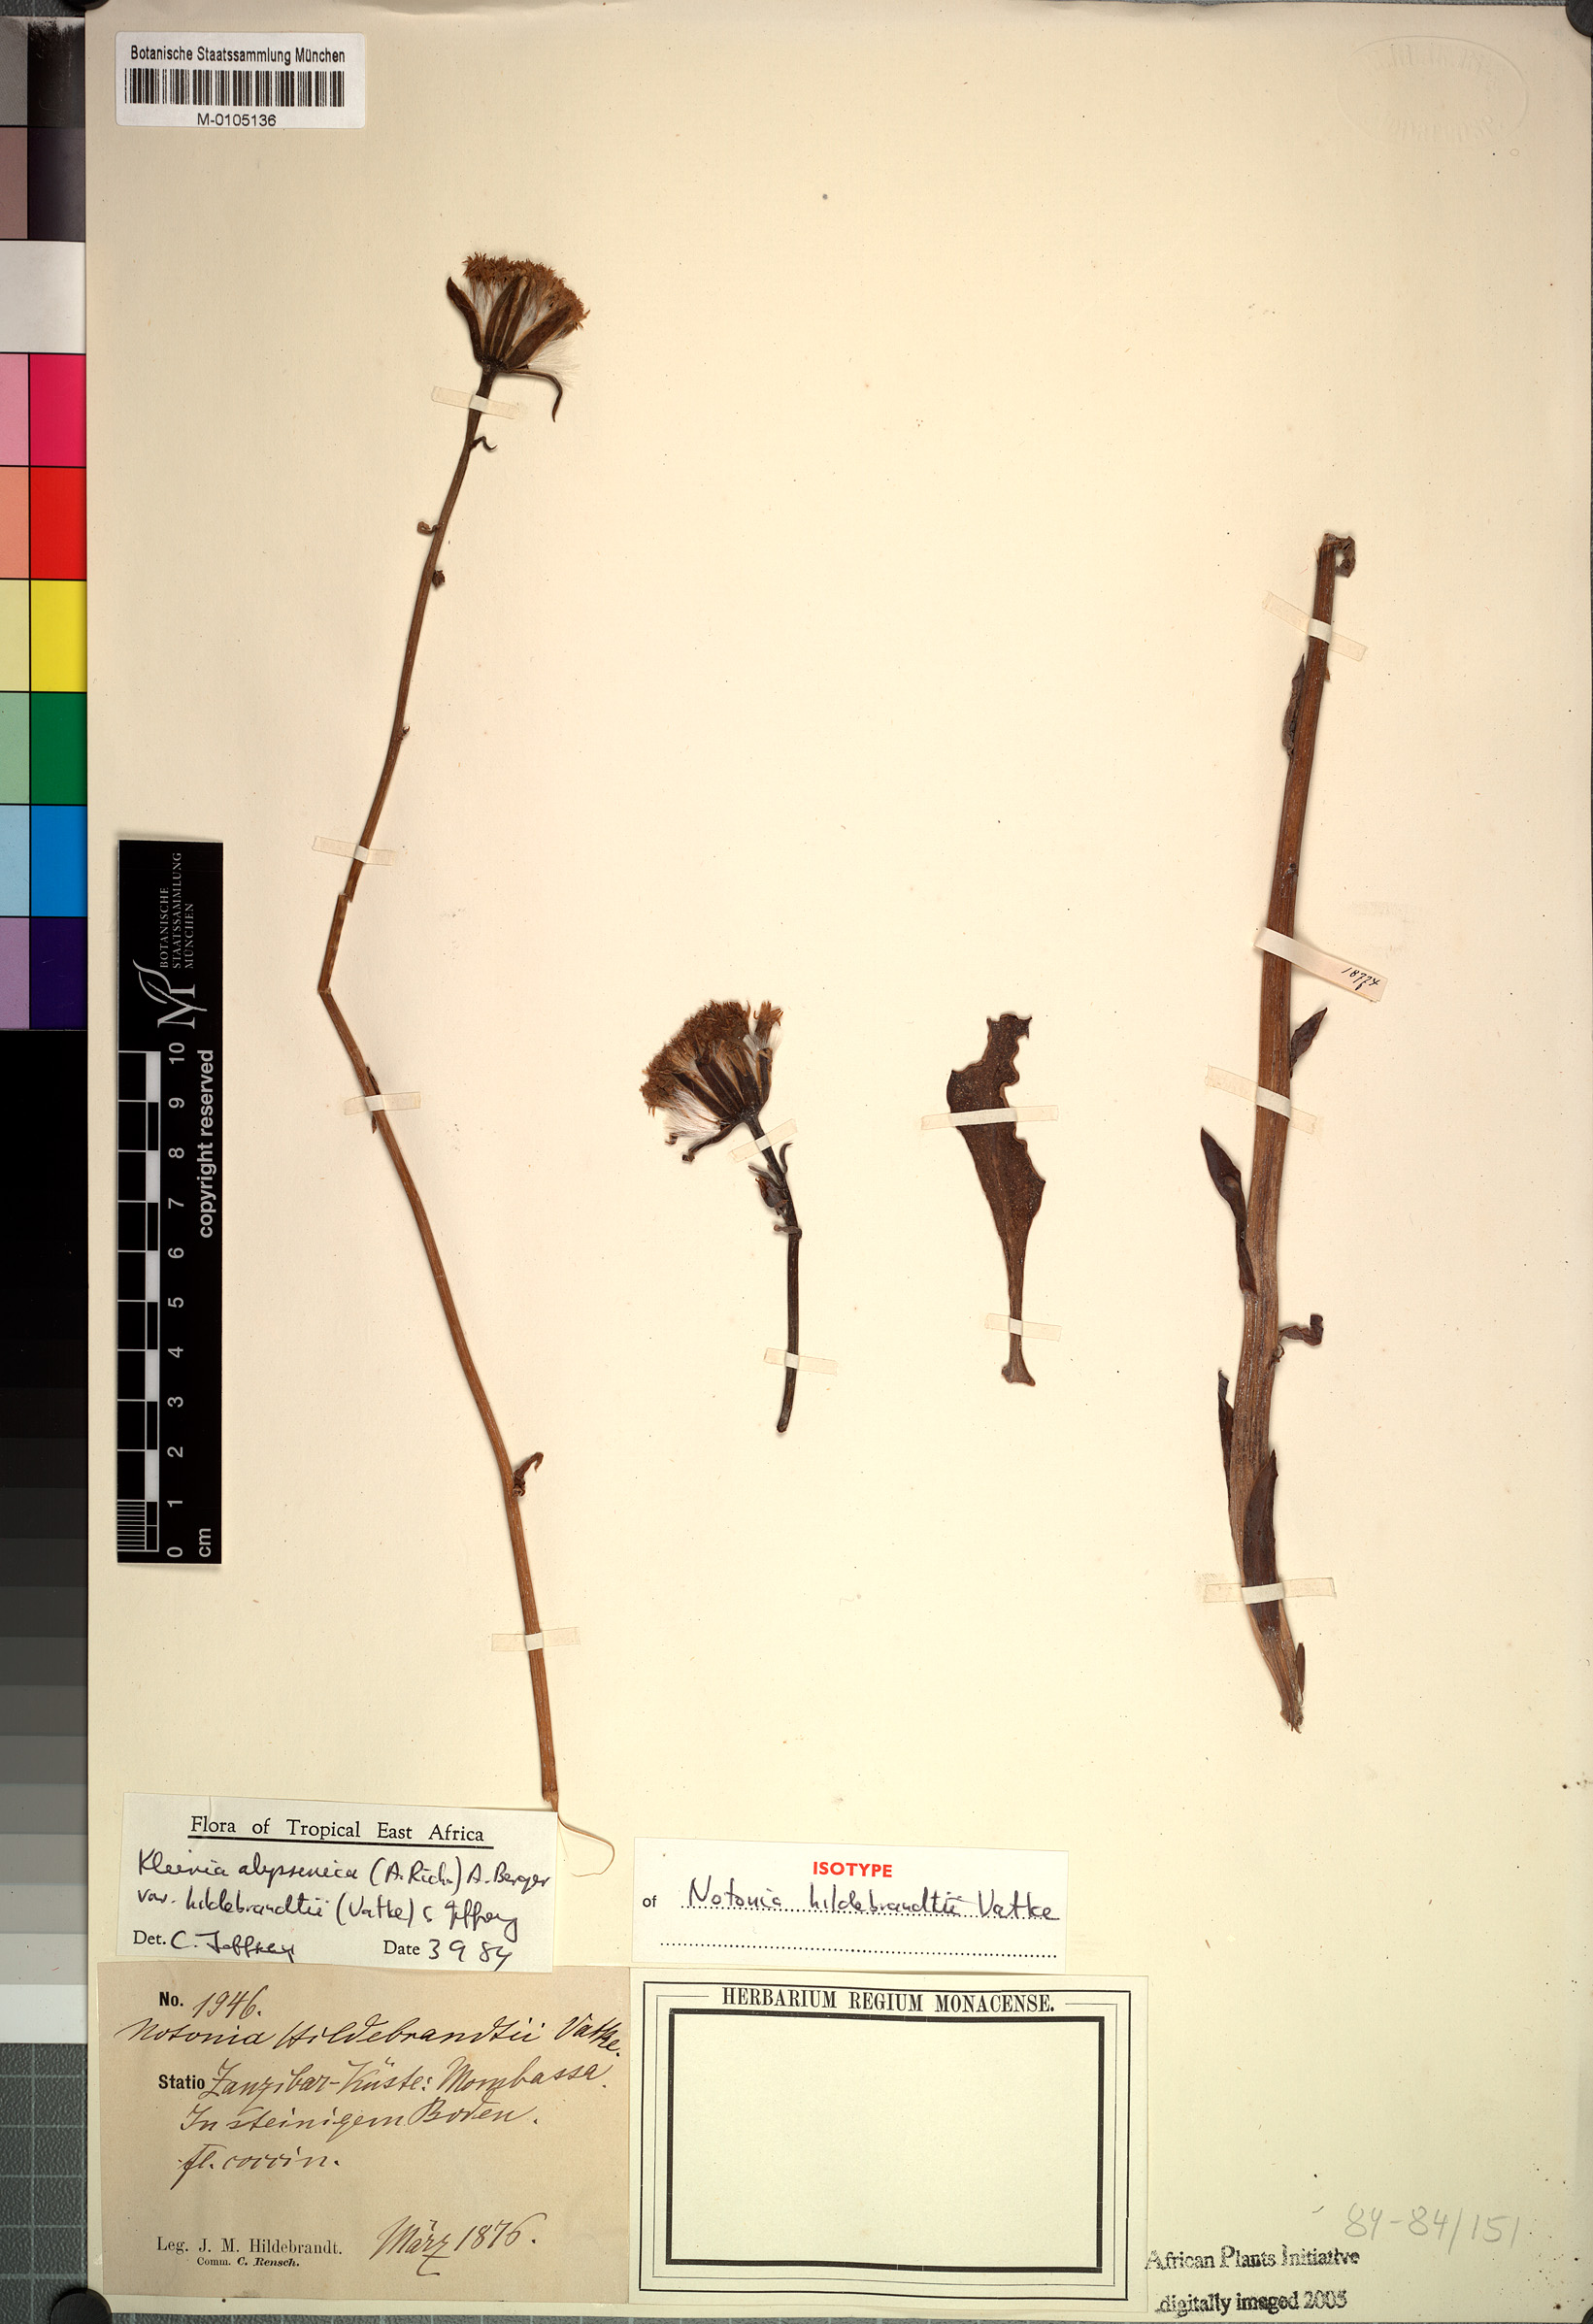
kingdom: Plantae
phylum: Tracheophyta
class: Magnoliopsida
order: Asterales
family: Asteraceae
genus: Kleinia
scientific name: Kleinia abyssinica
